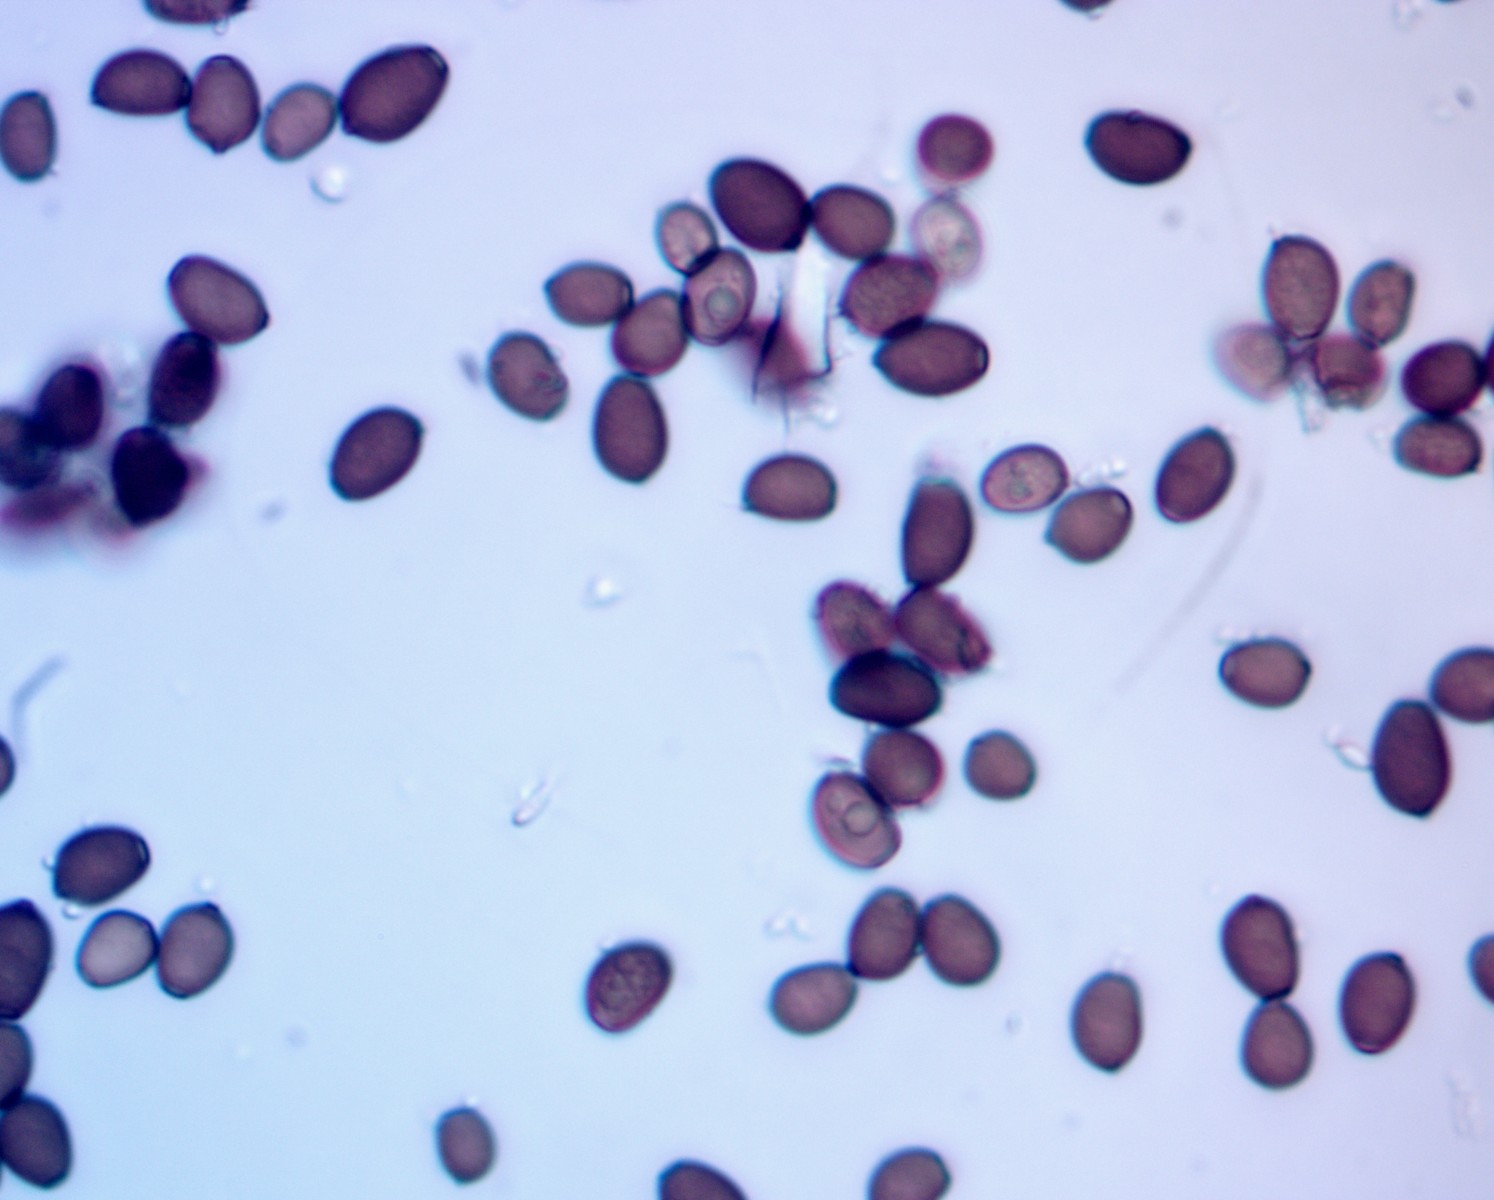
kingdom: Fungi
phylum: Basidiomycota
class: Agaricomycetes
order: Agaricales
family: Psathyrellaceae
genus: Coprinellus
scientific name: Coprinellus micaceus
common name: glimmer-blækhat
